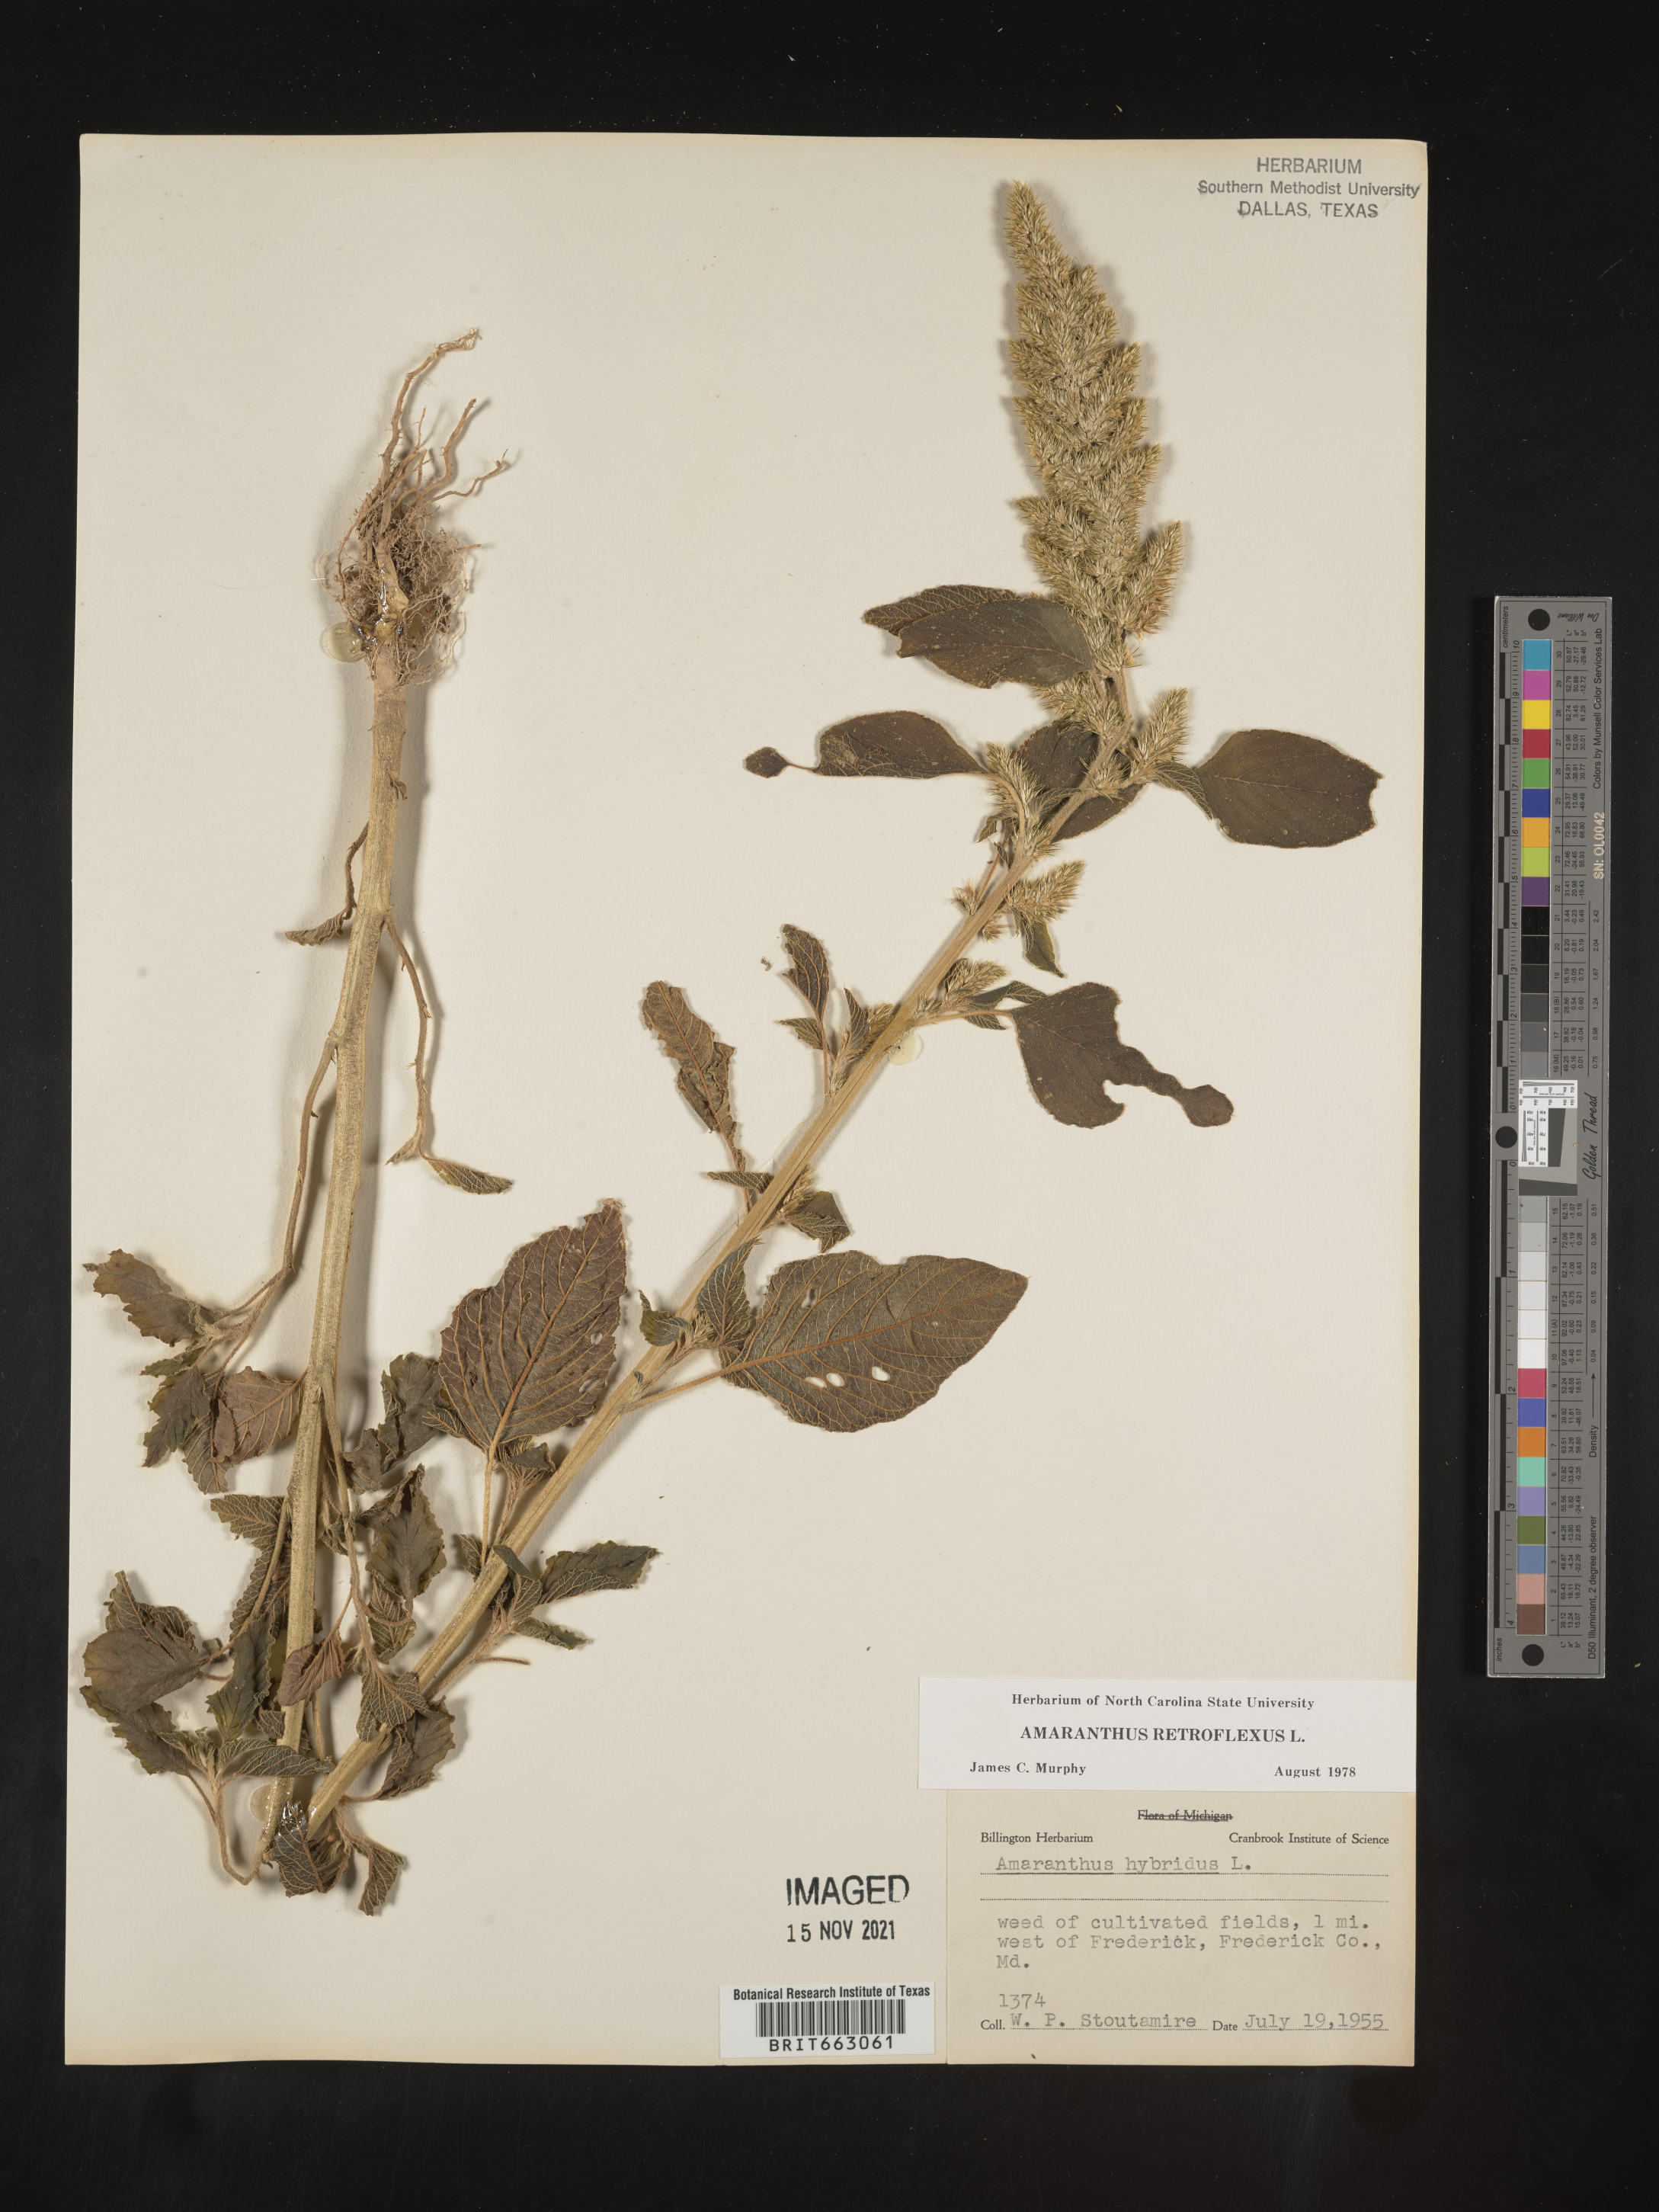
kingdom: Plantae
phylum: Tracheophyta
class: Magnoliopsida
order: Caryophyllales
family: Amaranthaceae
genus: Amaranthus
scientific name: Amaranthus retroflexus
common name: Redroot amaranth
